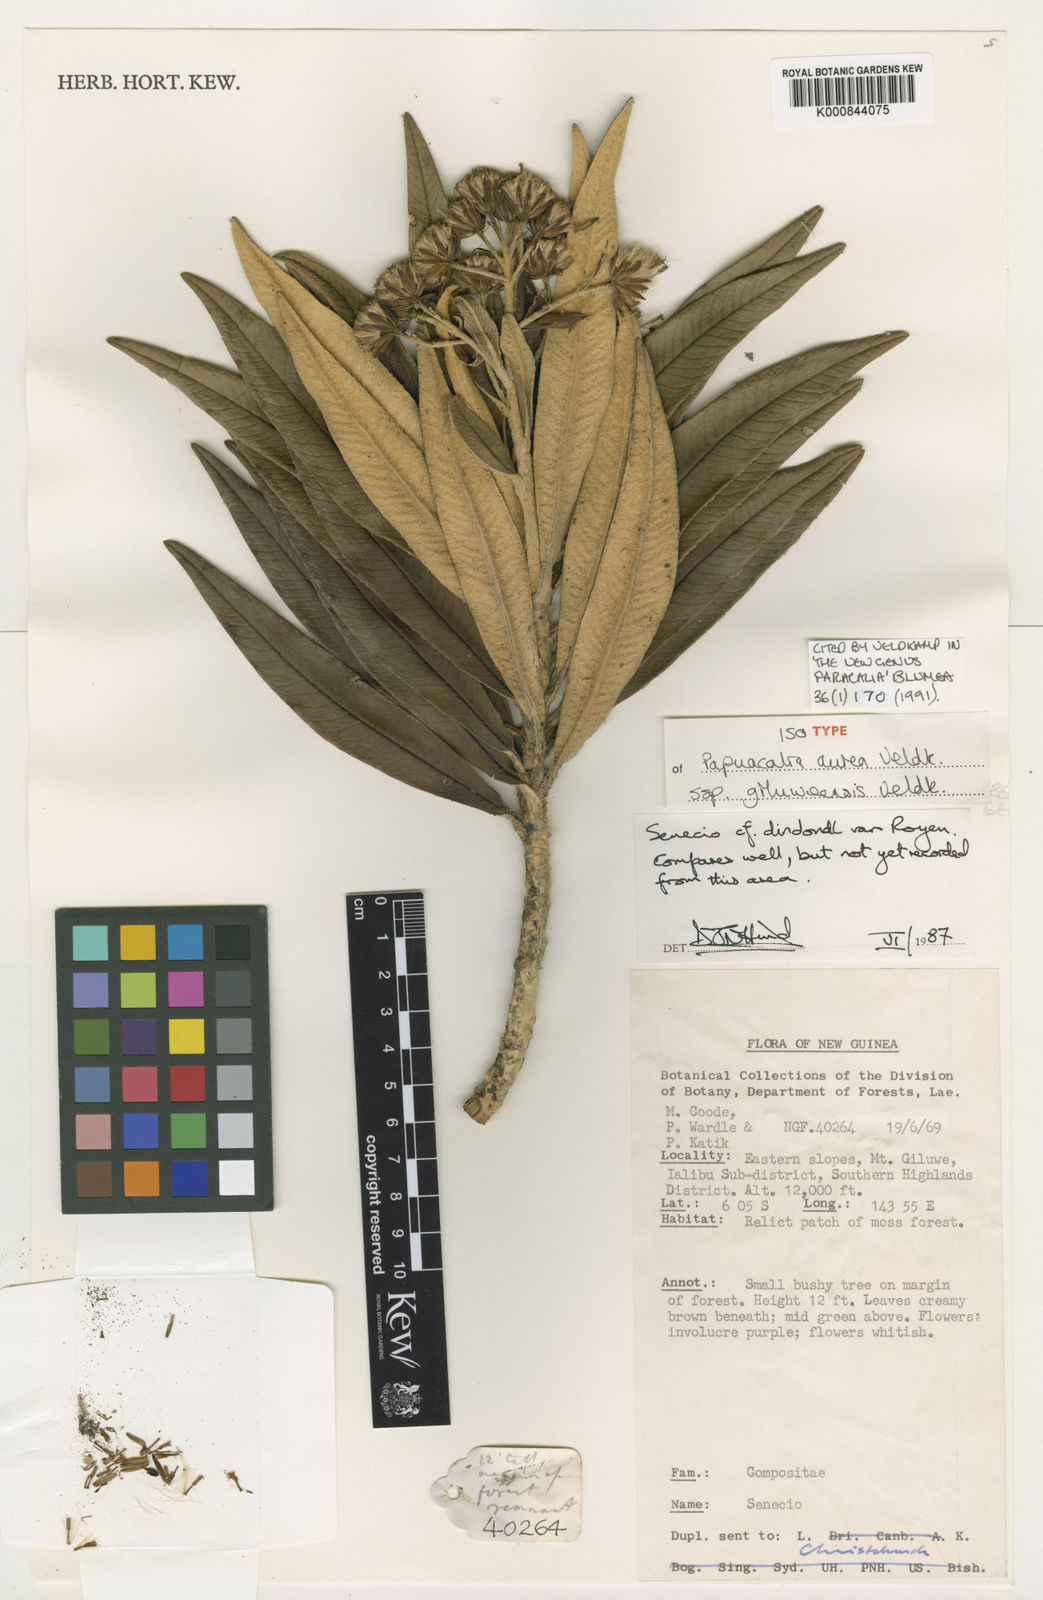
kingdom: Plantae
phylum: Tracheophyta
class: Magnoliopsida
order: Asterales
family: Asteraceae
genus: Papuacalia
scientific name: Papuacalia aurea
